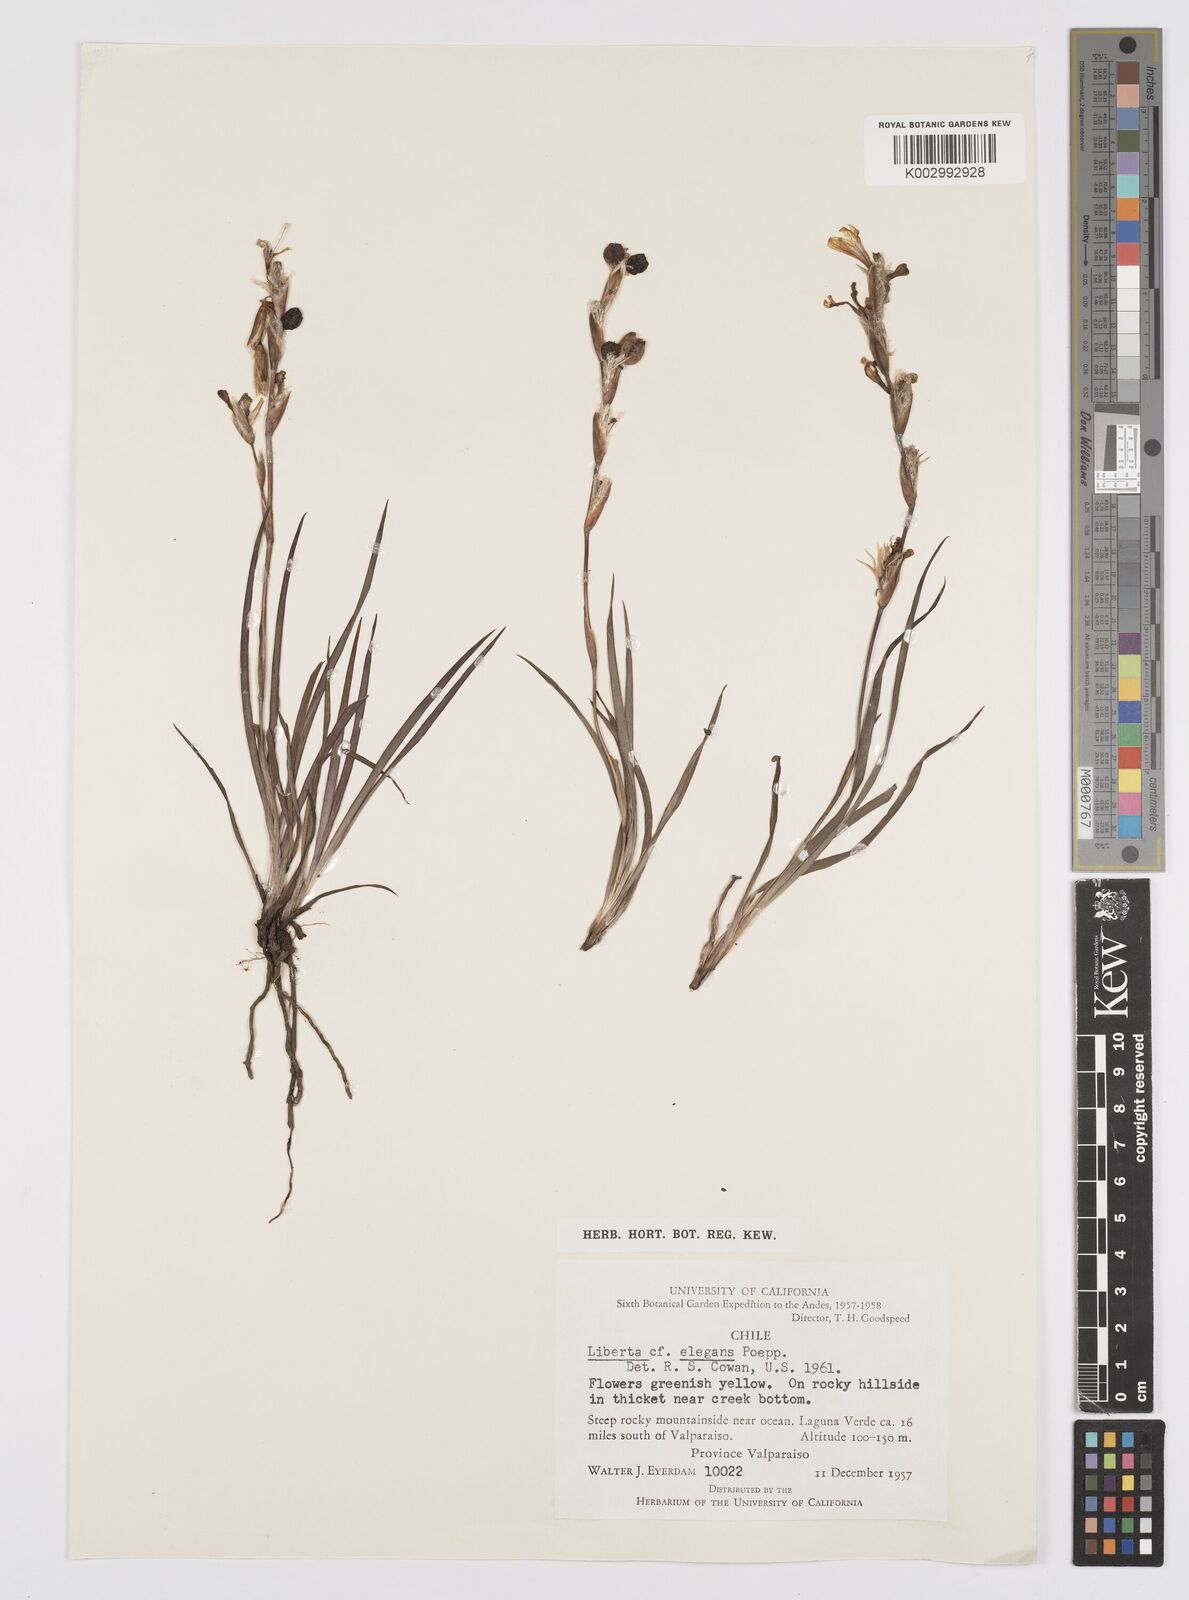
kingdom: Plantae
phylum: Tracheophyta
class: Liliopsida
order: Asparagales
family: Iridaceae
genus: Sisyrinchium
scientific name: Sisyrinchium cuspidatum
